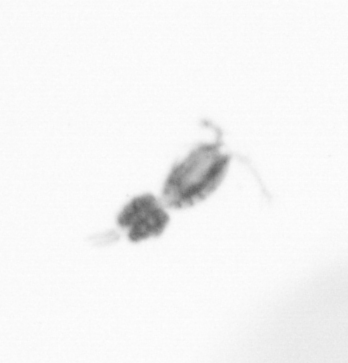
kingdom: Animalia
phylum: Arthropoda
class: Copepoda
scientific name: Copepoda
